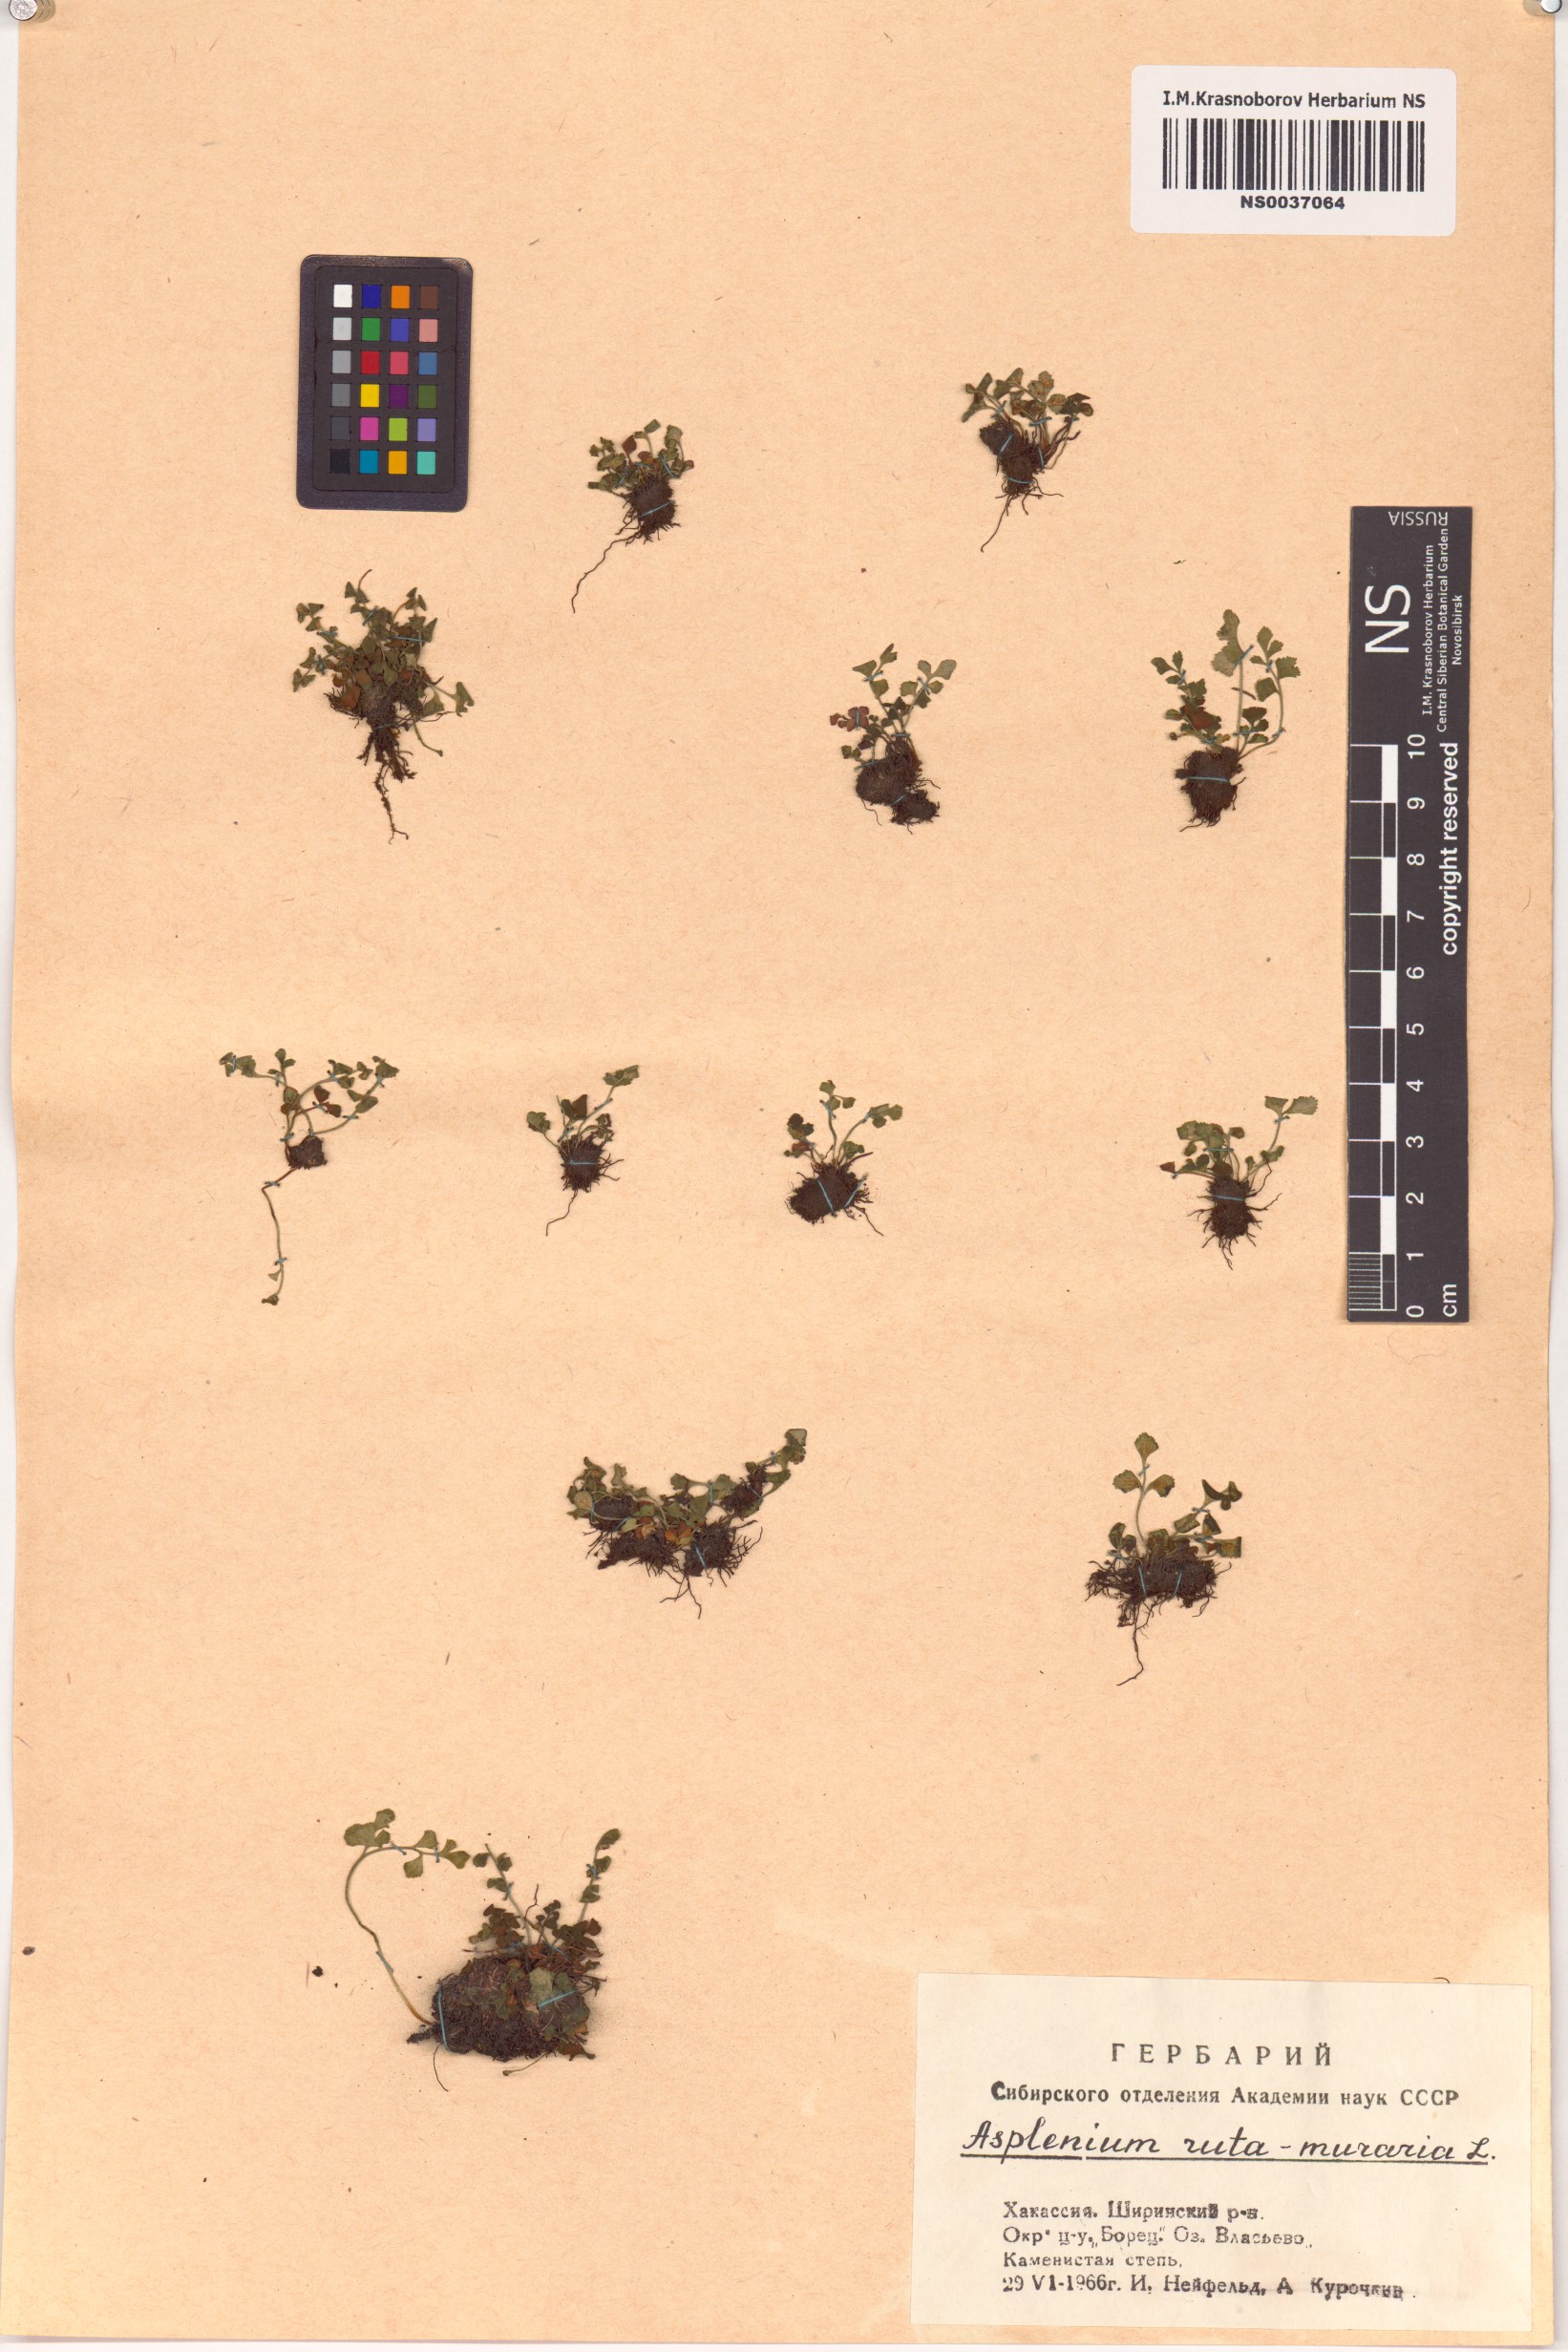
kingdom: Plantae
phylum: Tracheophyta
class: Polypodiopsida
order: Polypodiales
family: Aspleniaceae
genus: Asplenium
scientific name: Asplenium ruta-muraria
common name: Wall-rue
